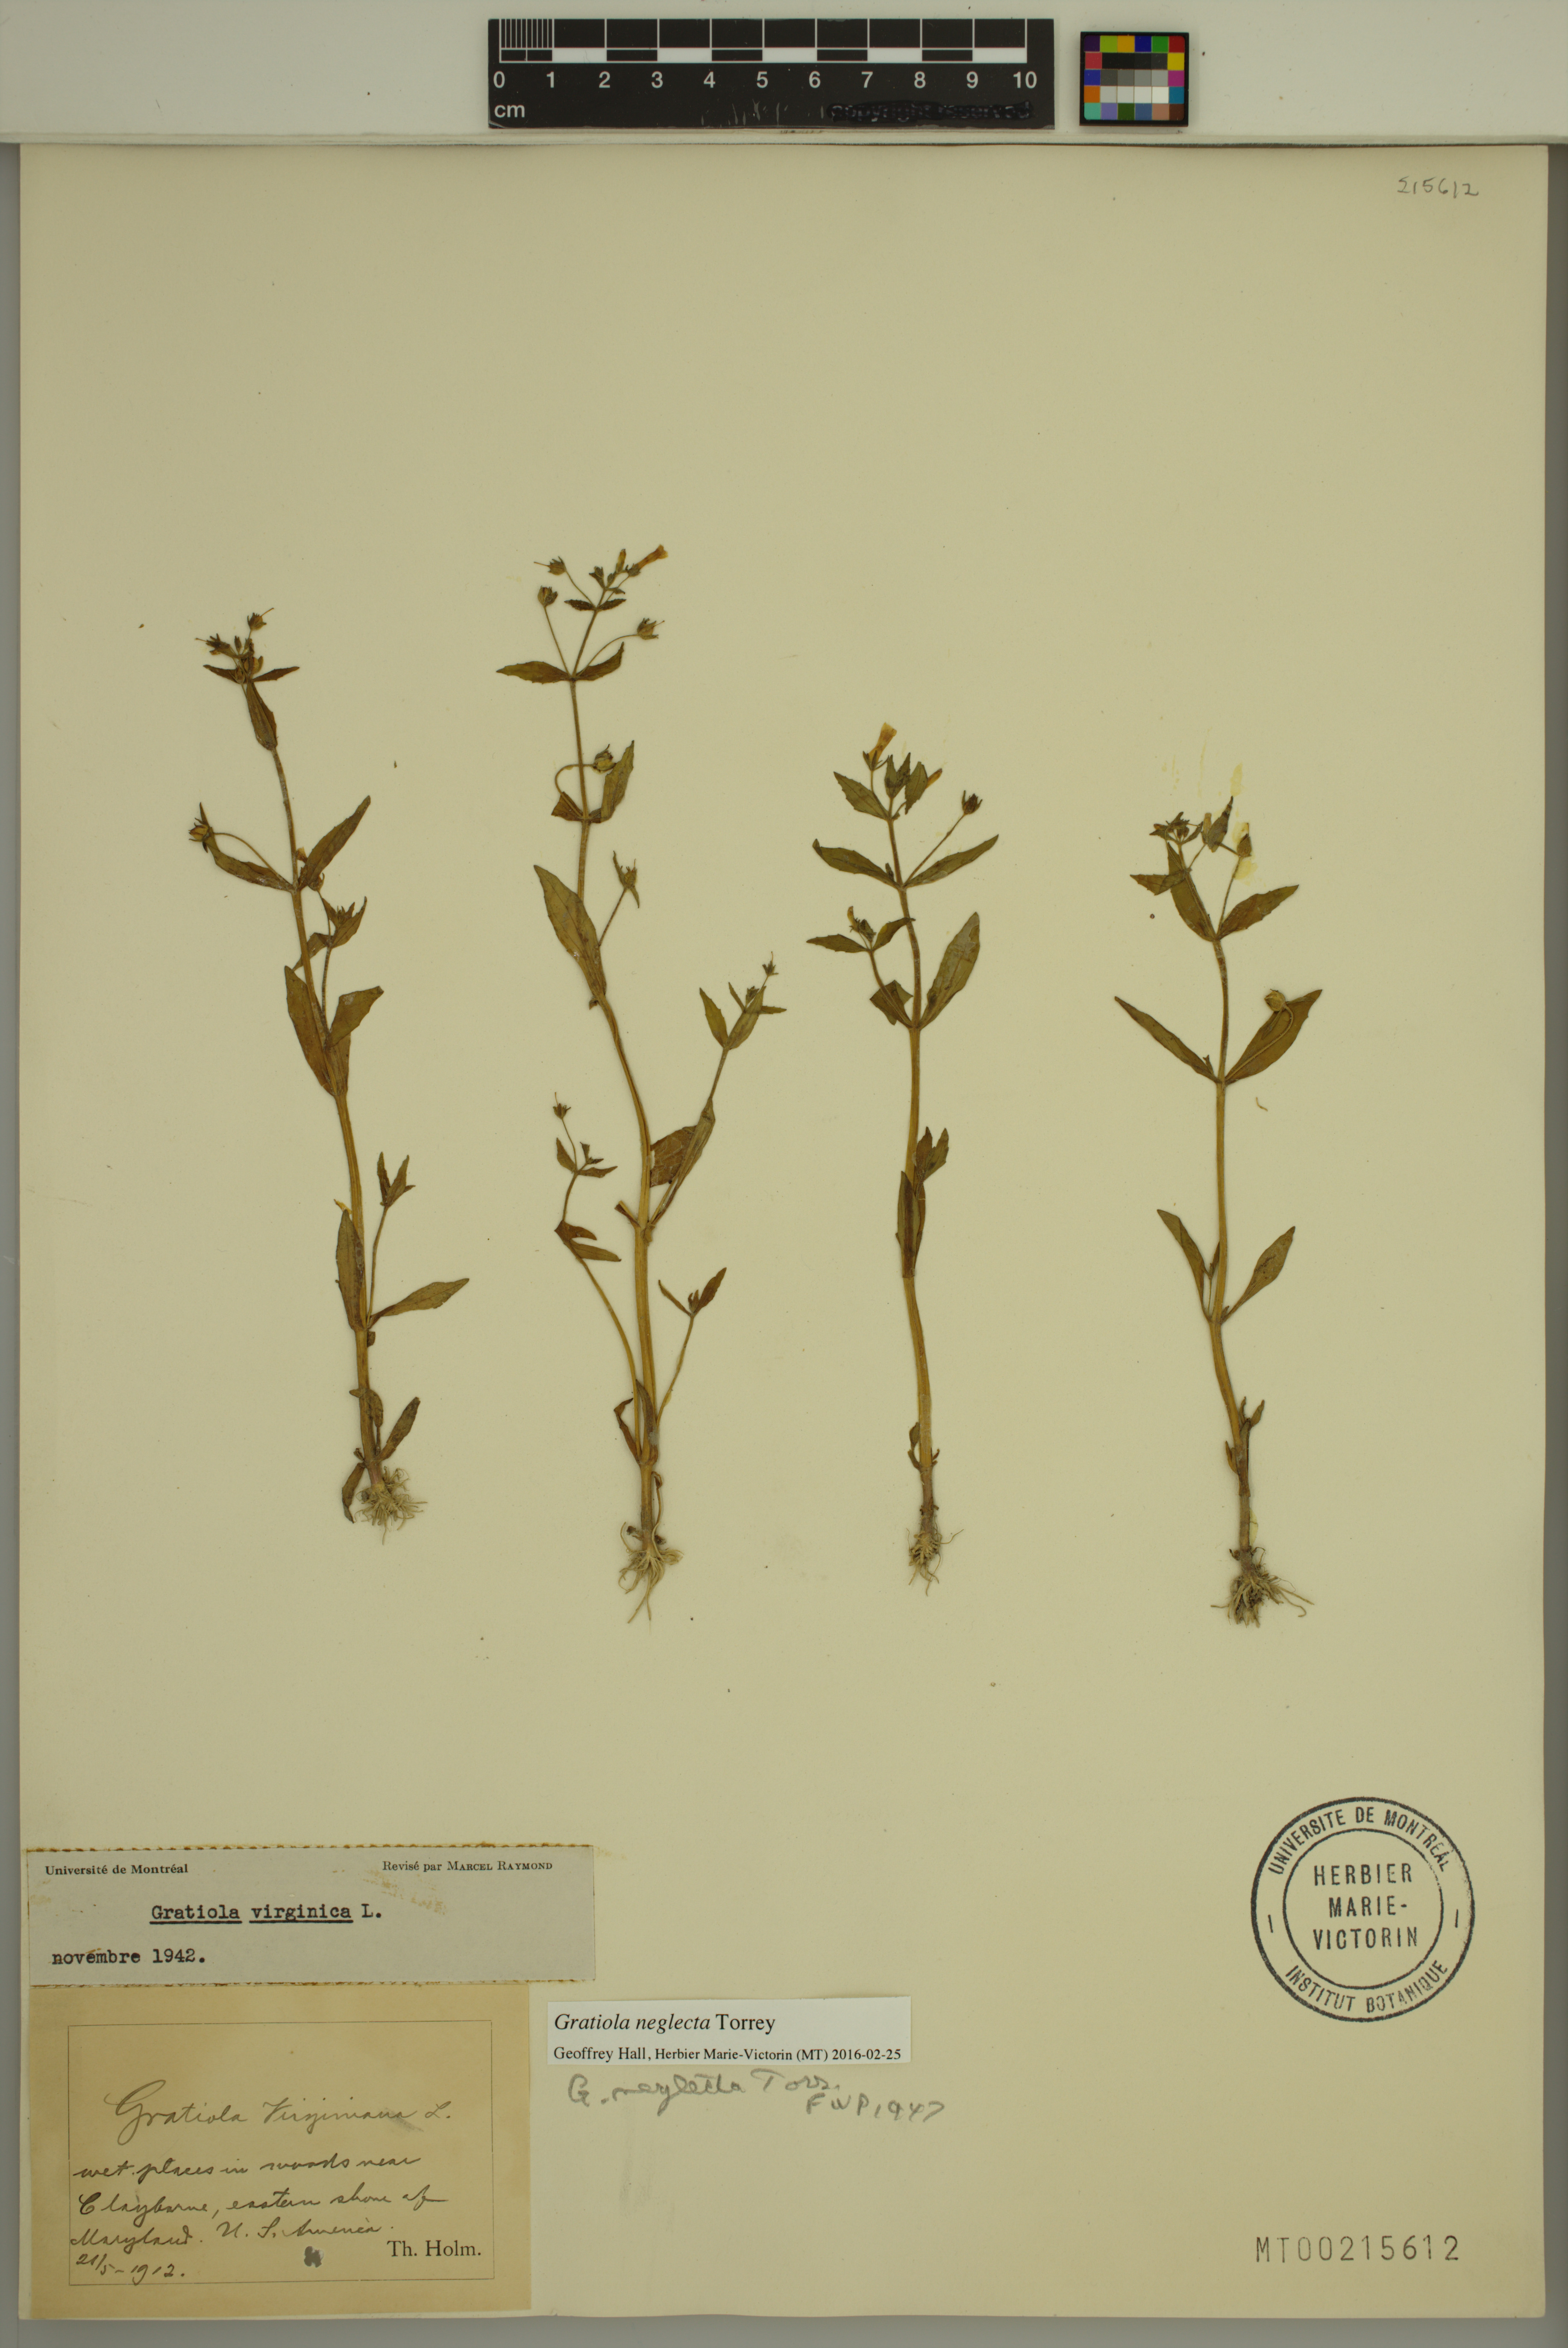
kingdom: Plantae
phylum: Tracheophyta
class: Magnoliopsida
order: Lamiales
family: Plantaginaceae
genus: Gratiola
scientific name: Gratiola neglecta
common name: American hedge-hyssop
